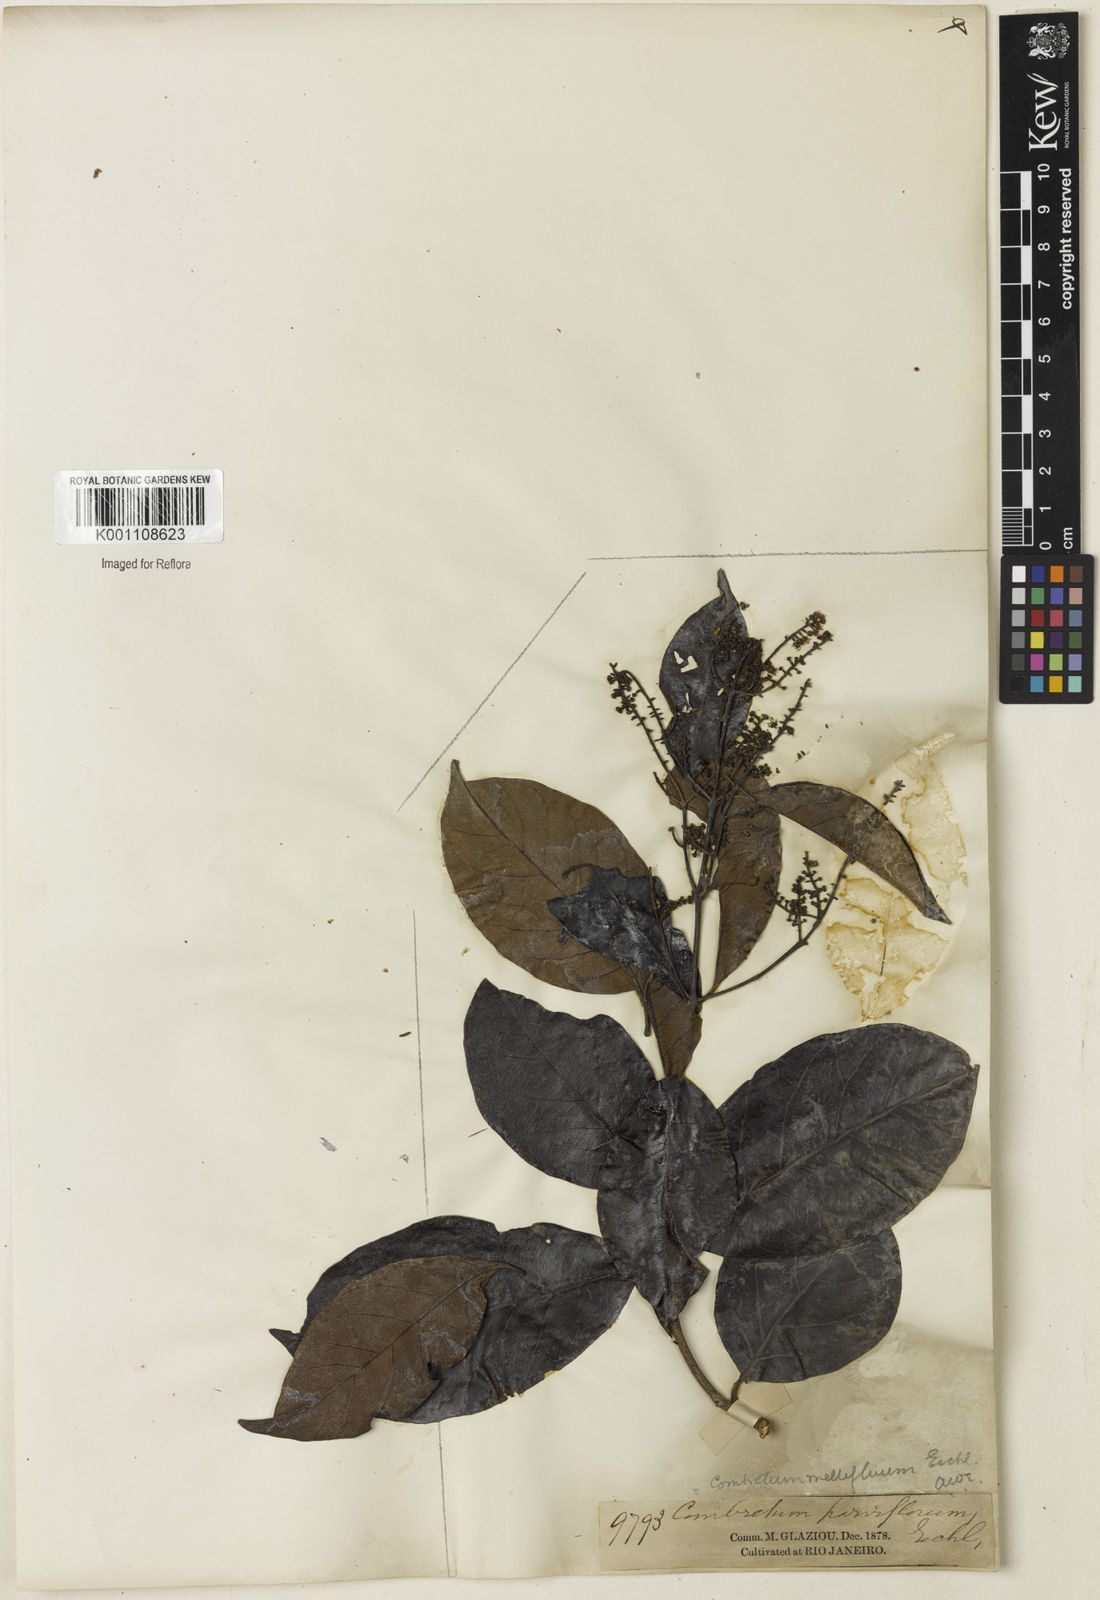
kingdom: Plantae
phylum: Tracheophyta
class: Magnoliopsida
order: Myrtales
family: Combretaceae
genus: Combretum
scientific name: Combretum mellifluum
